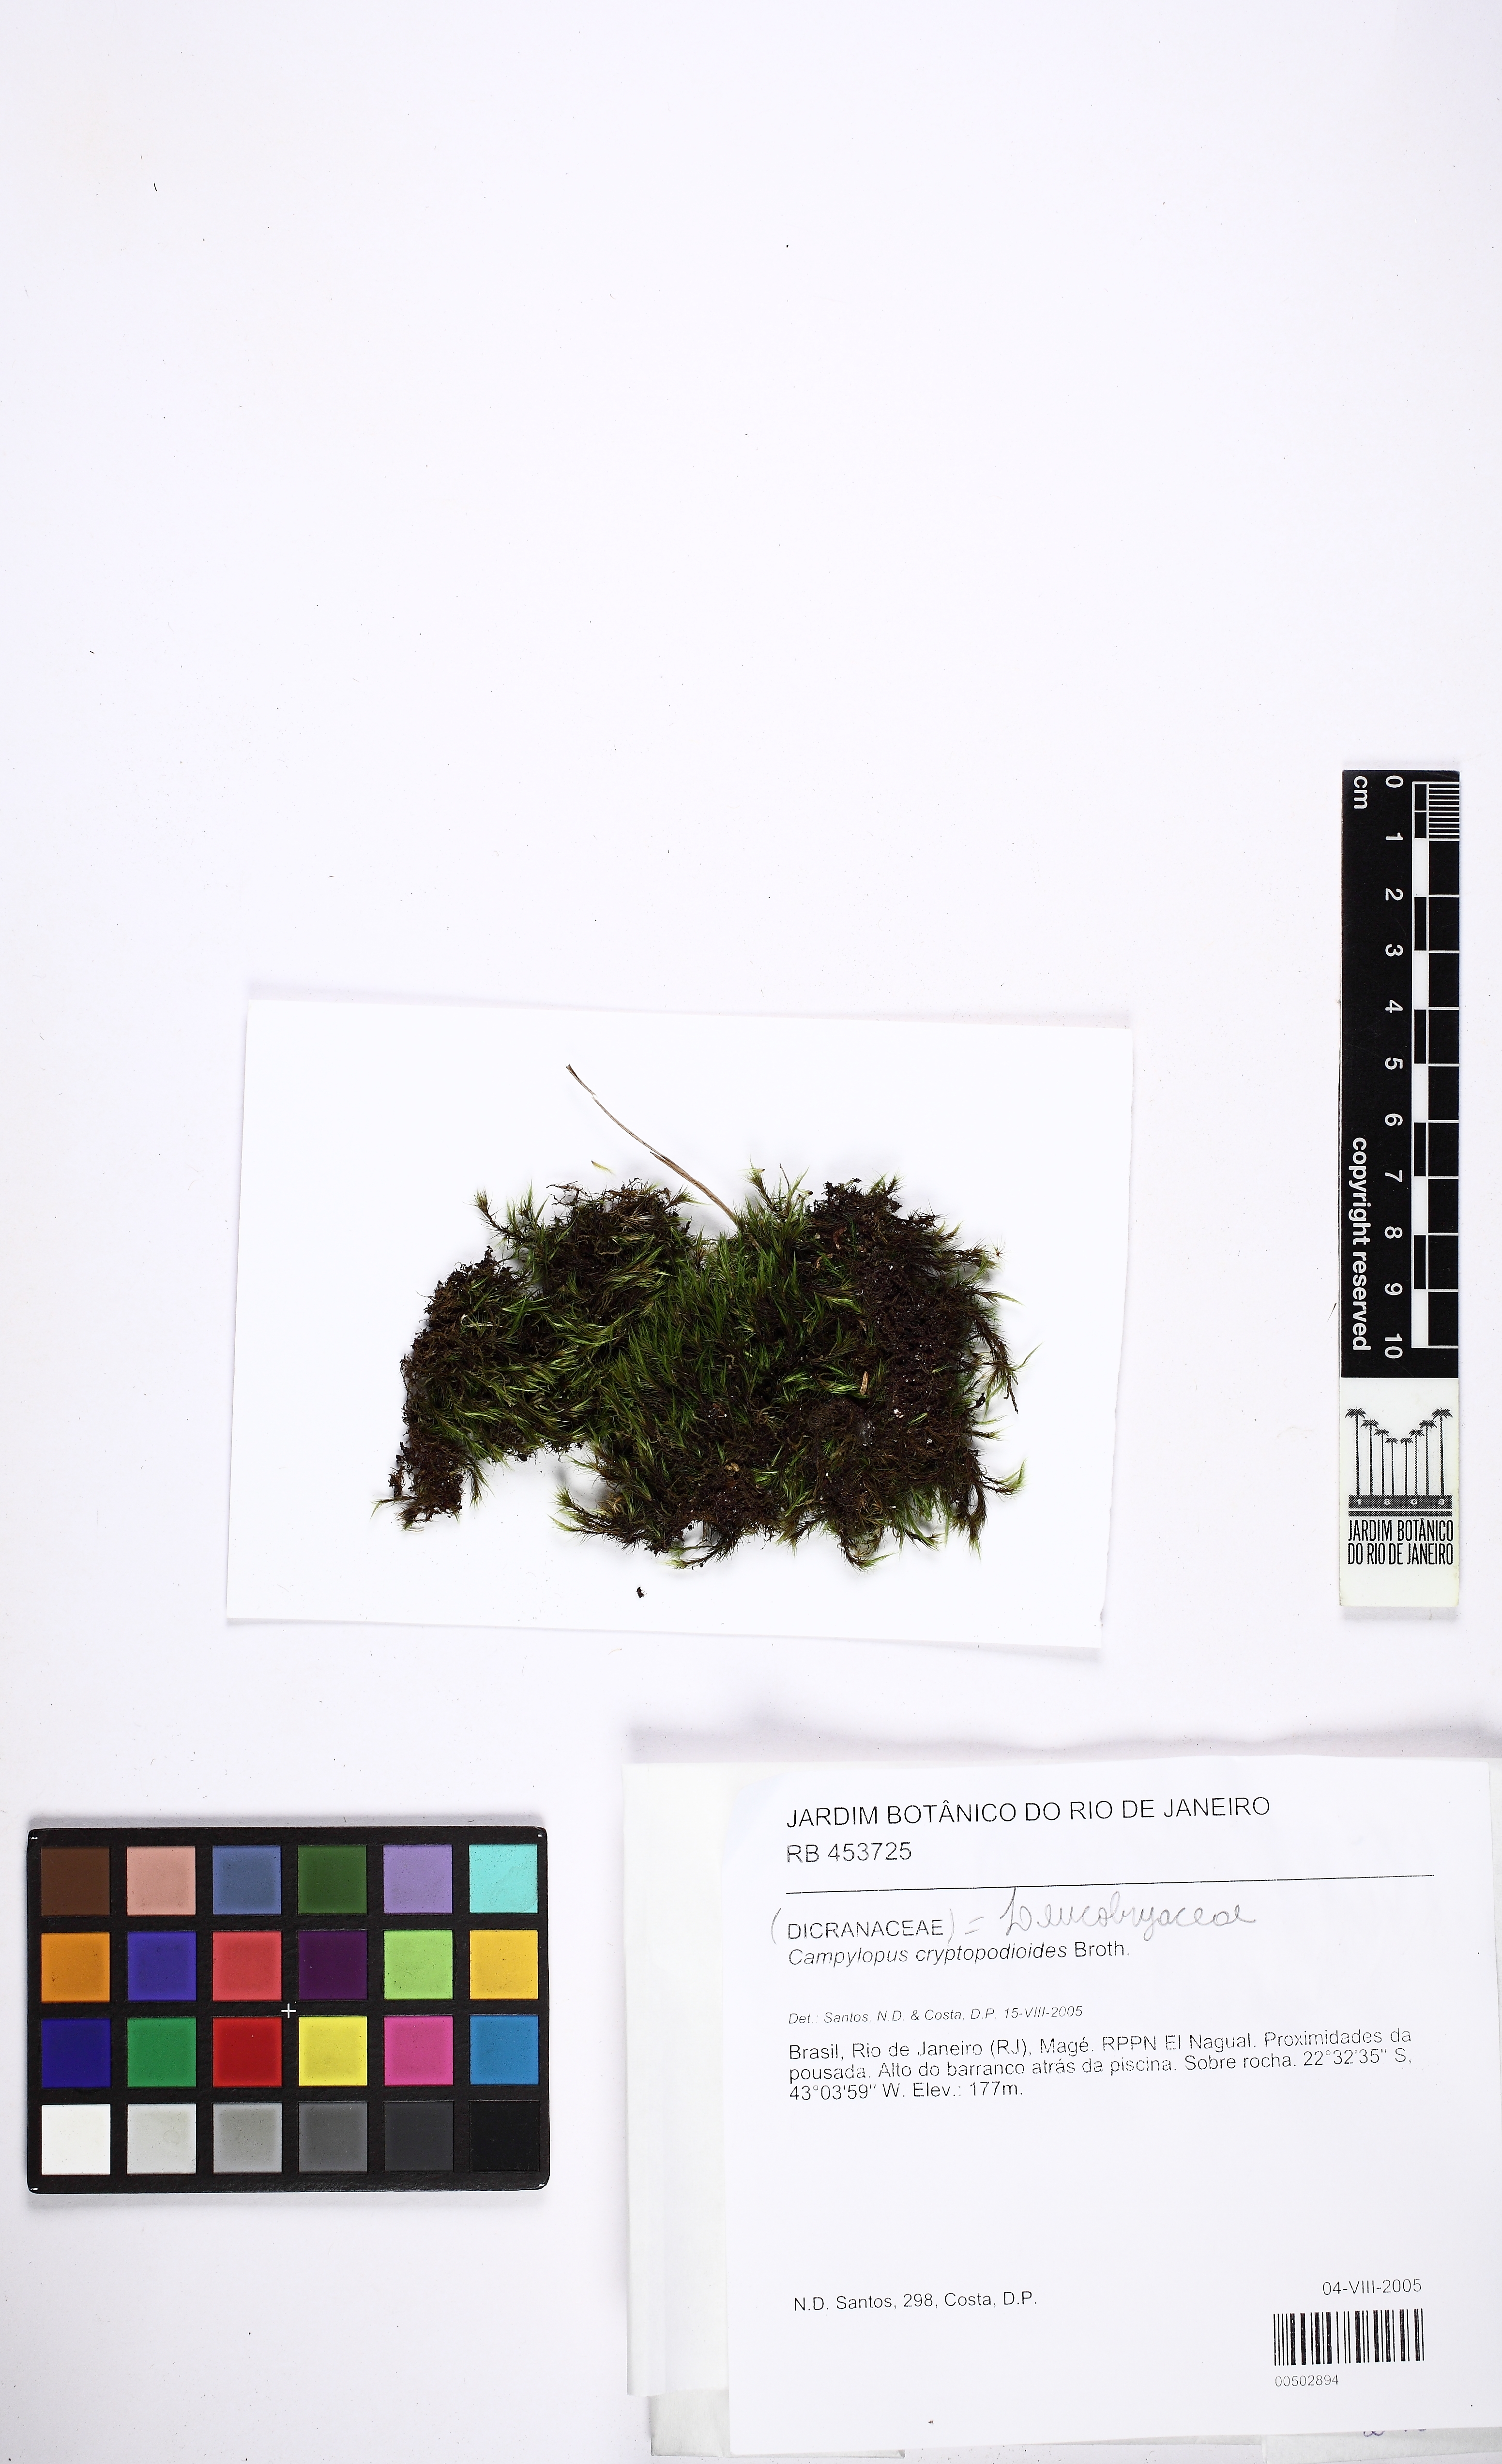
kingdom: Plantae
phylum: Bryophyta
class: Bryopsida
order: Dicranales
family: Leucobryaceae
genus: Campylopus
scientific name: Campylopus cryptopodioides
